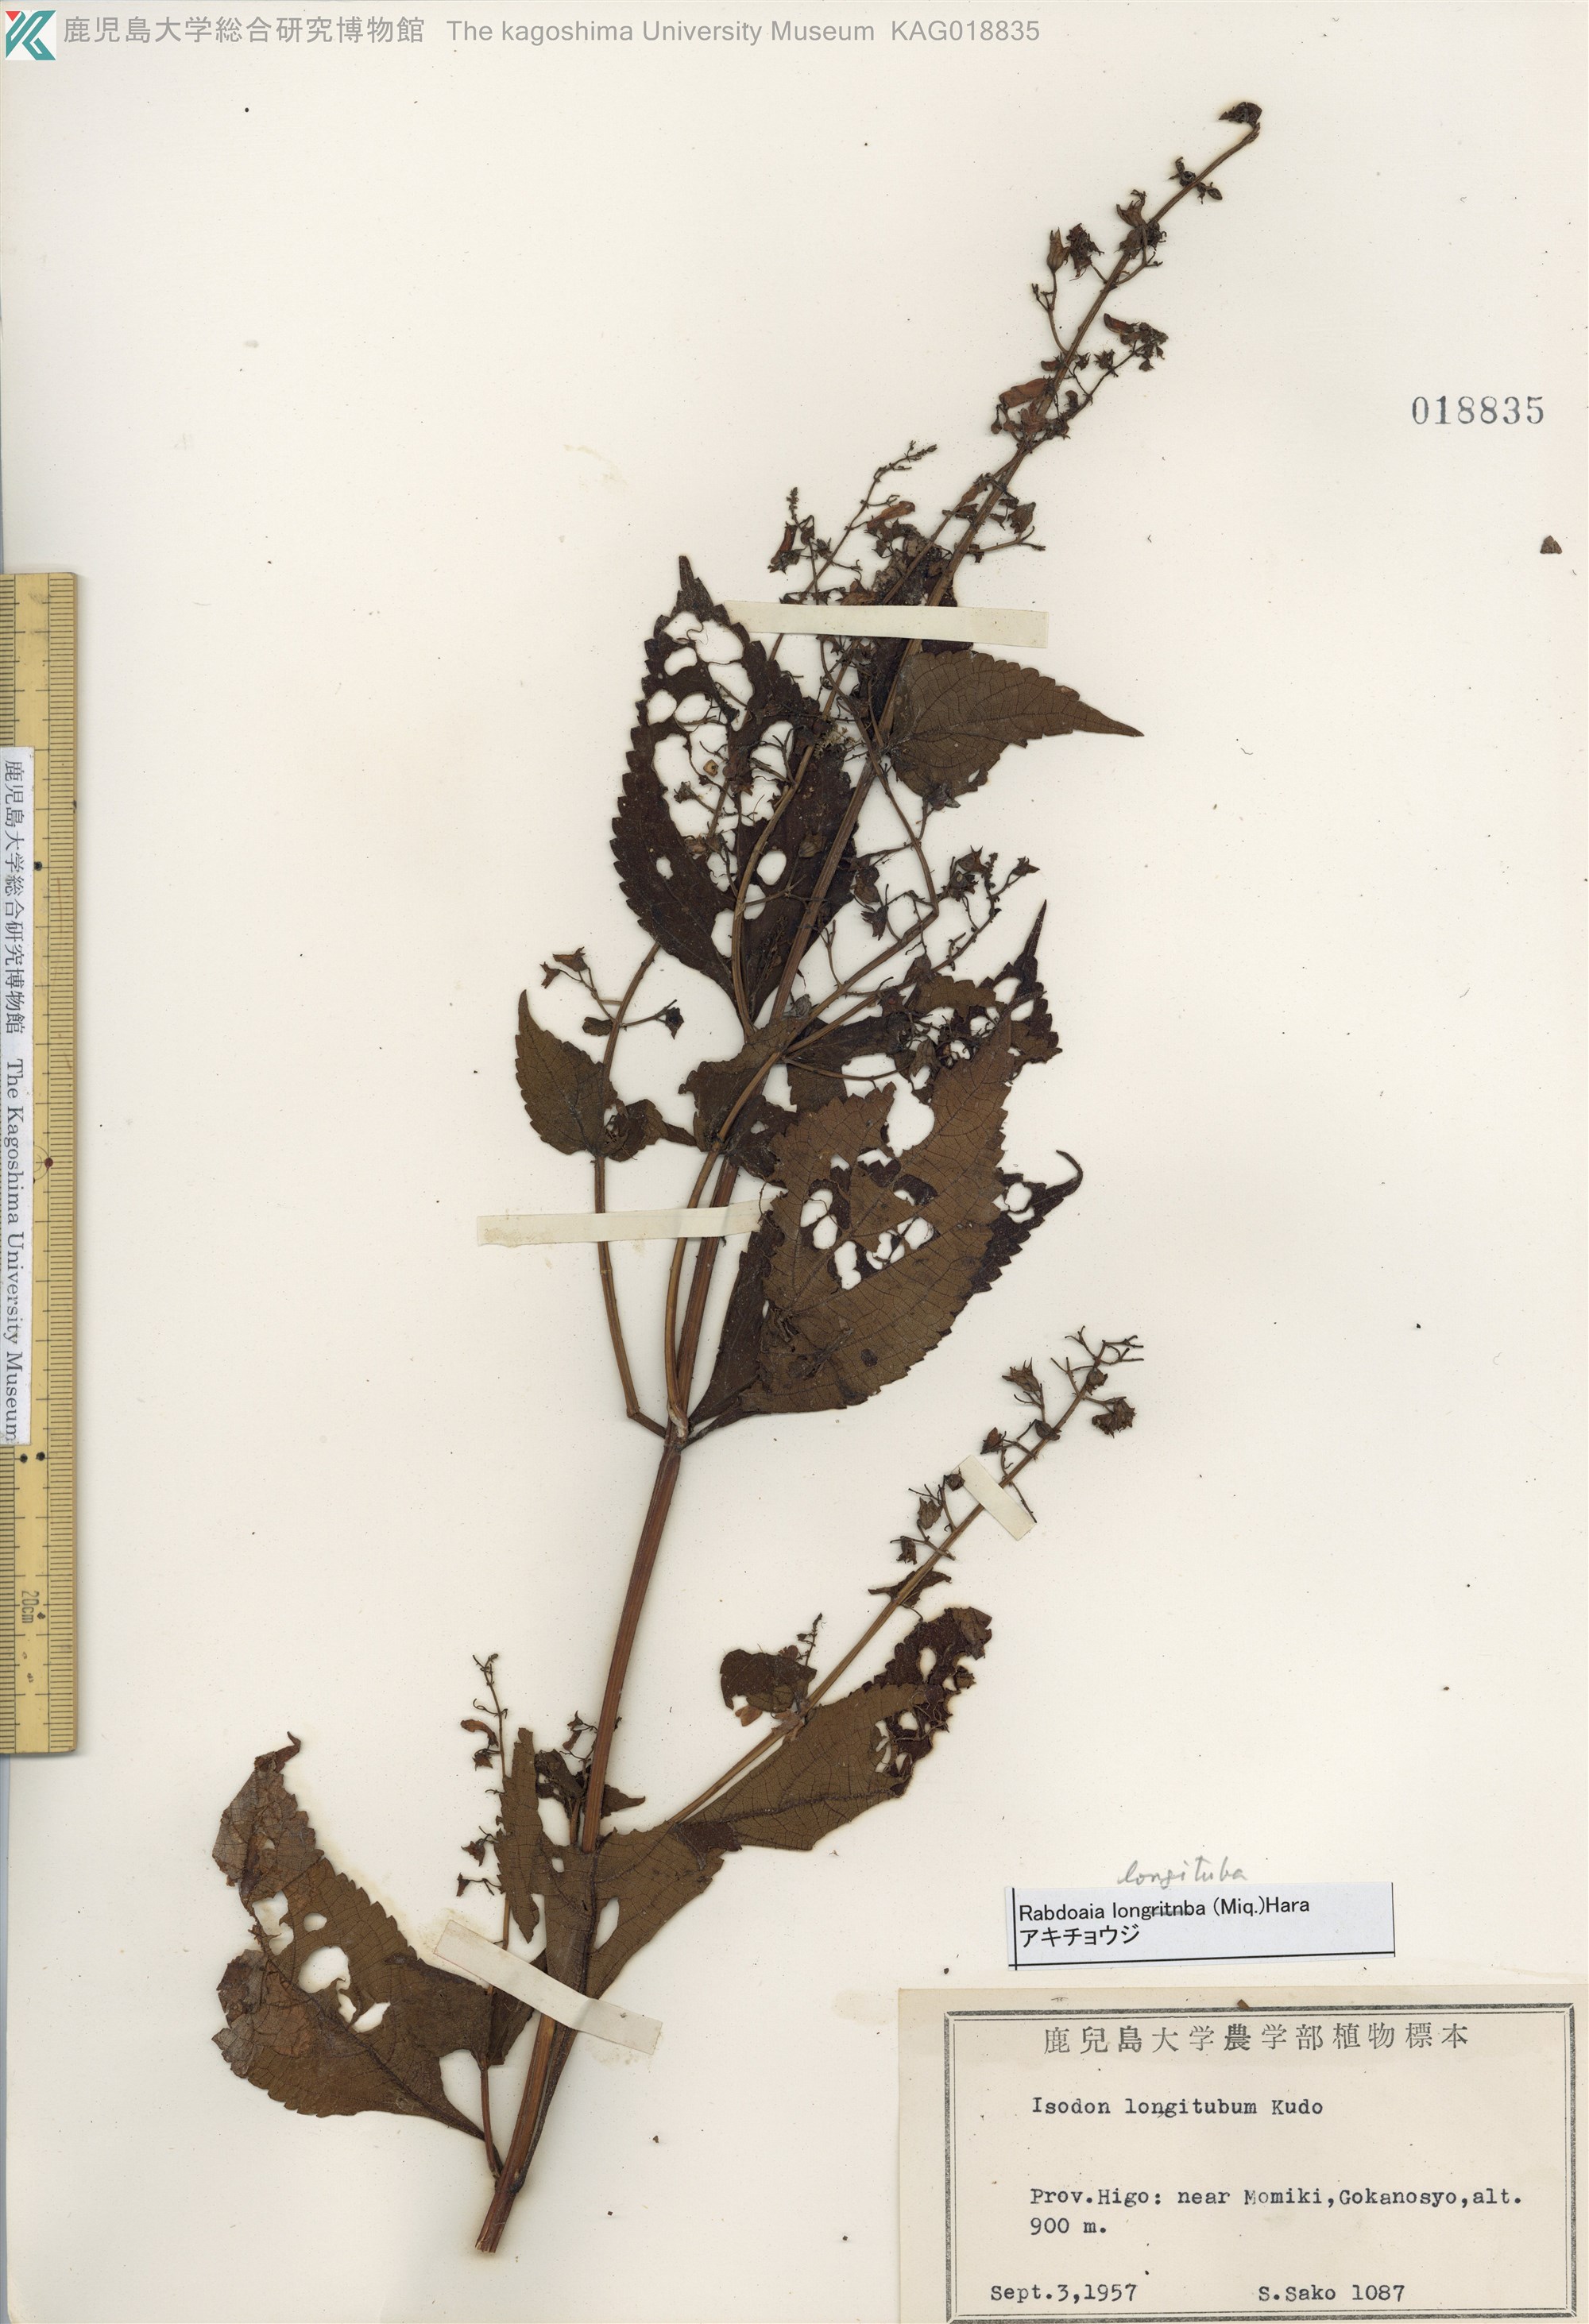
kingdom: Plantae
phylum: Tracheophyta
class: Magnoliopsida
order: Lamiales
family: Lamiaceae
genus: Isodon
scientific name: Isodon longitubus
